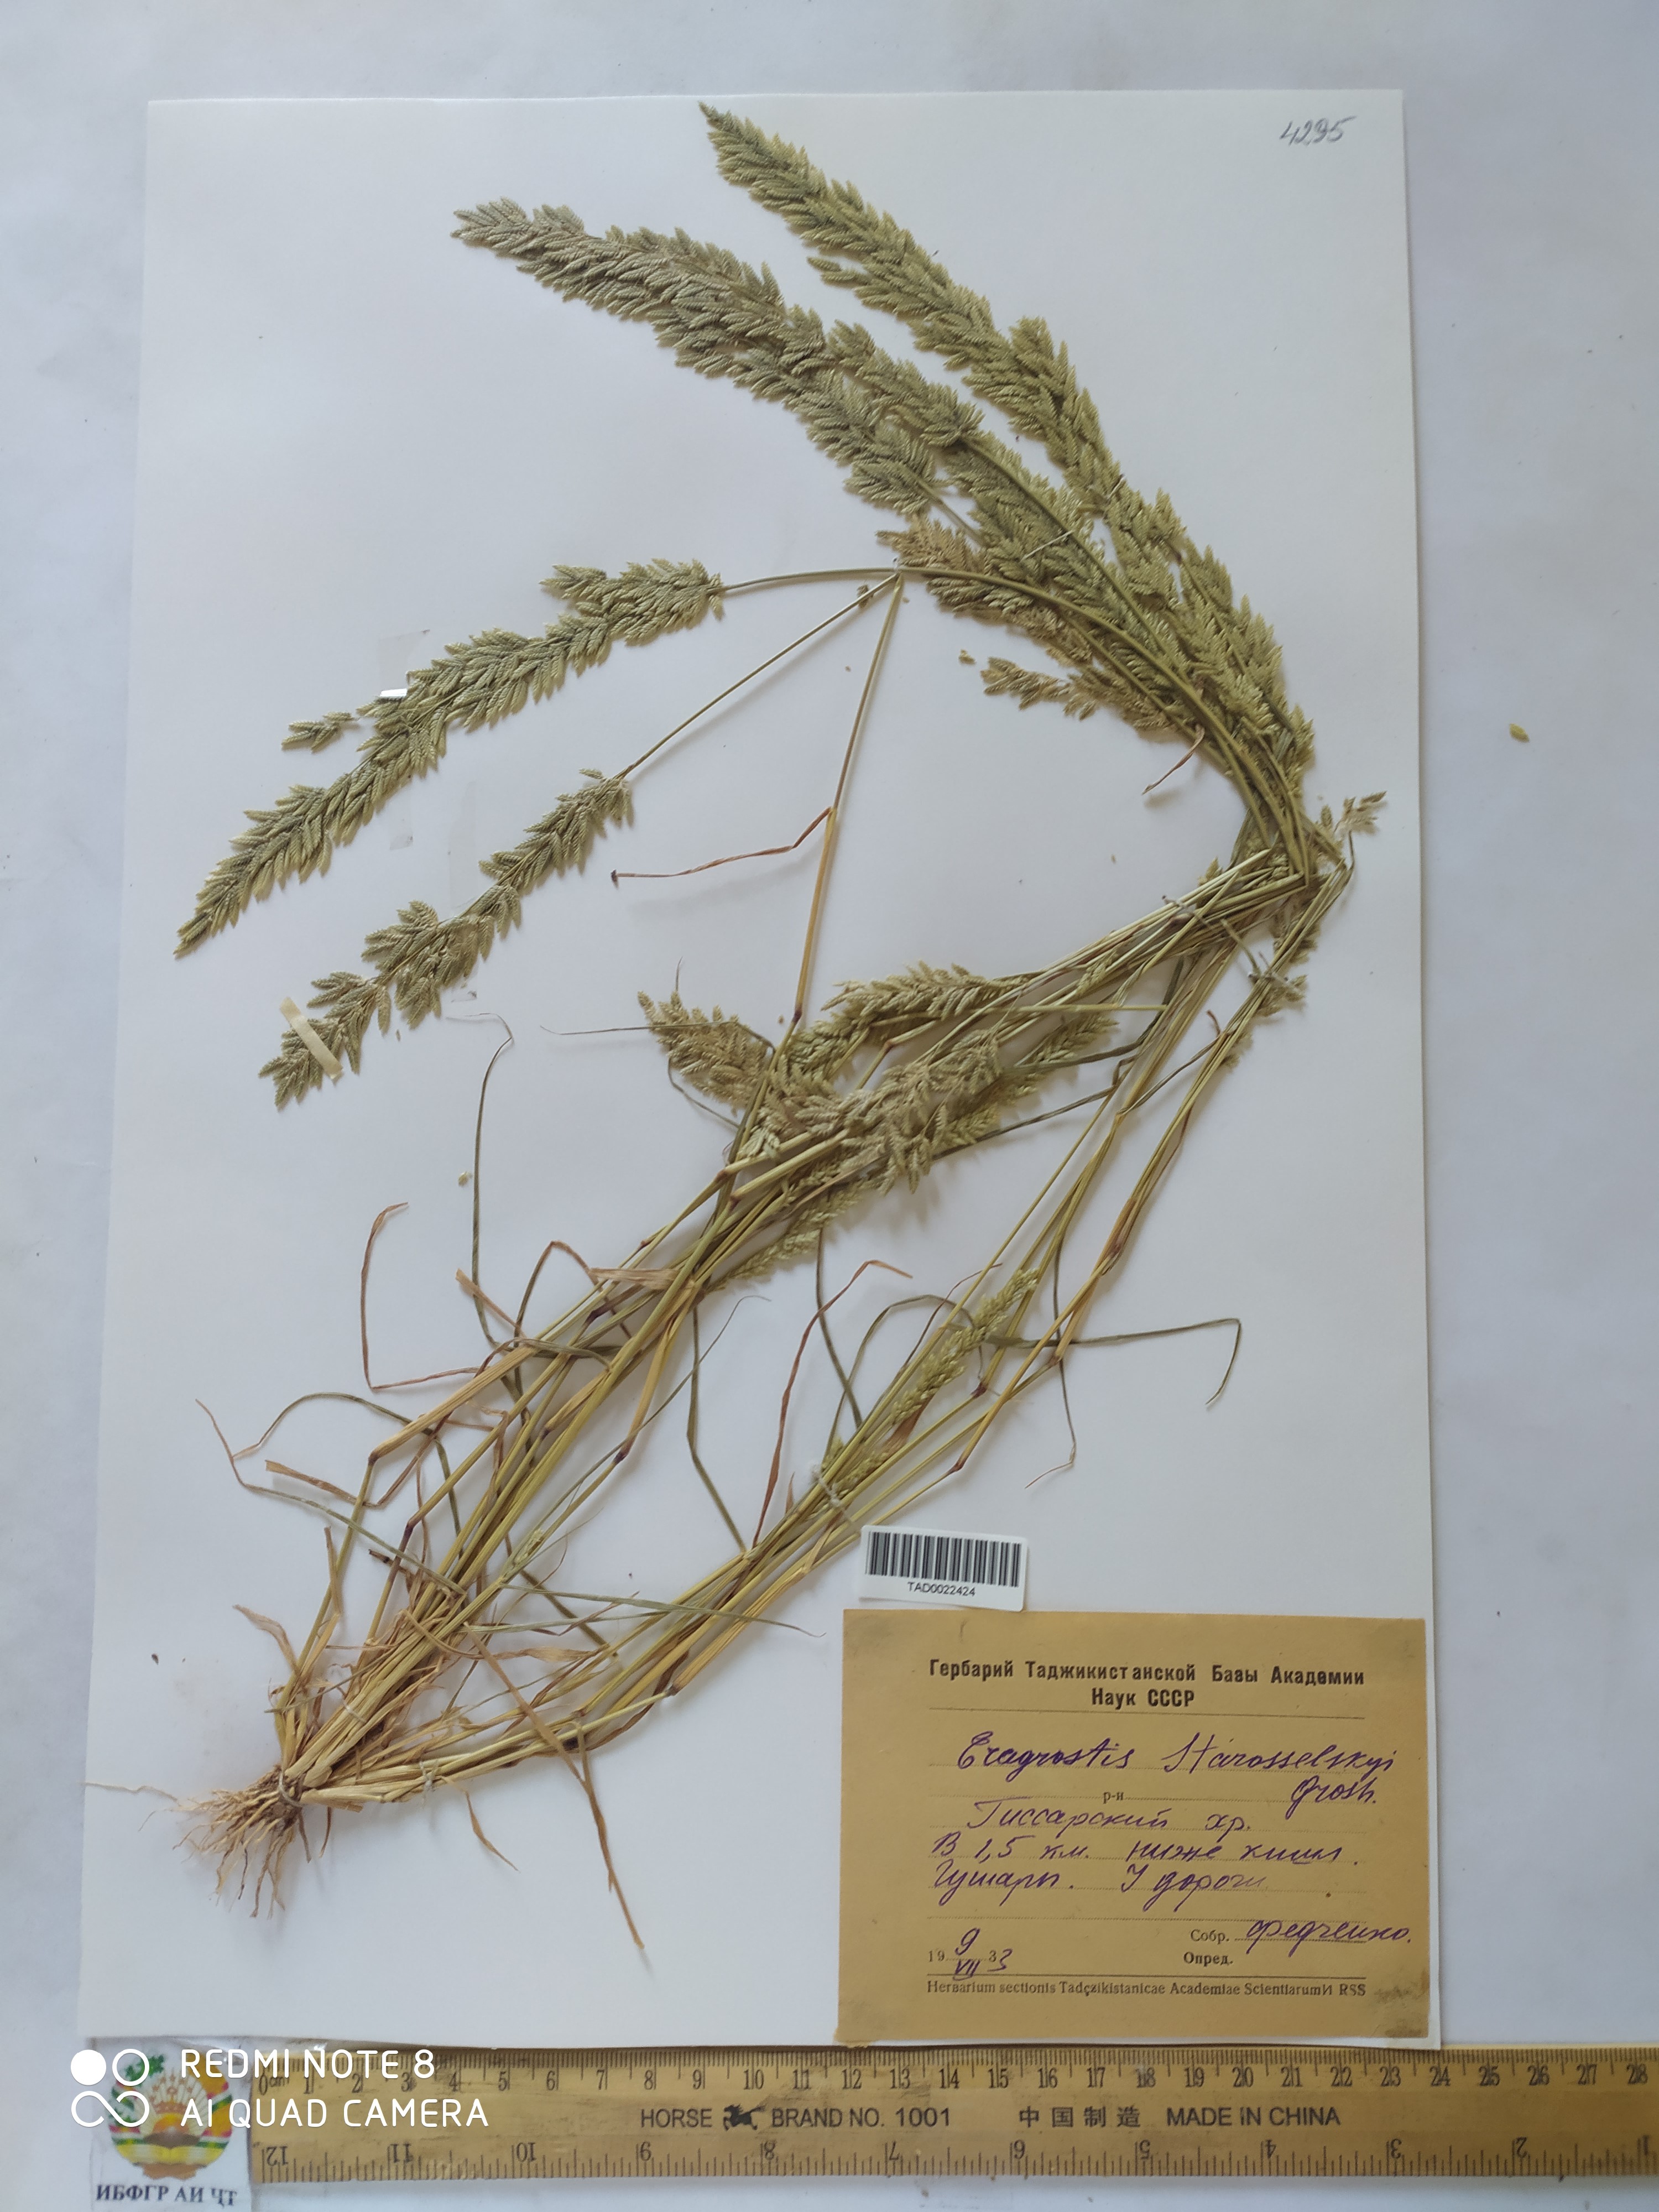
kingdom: Plantae
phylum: Tracheophyta
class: Liliopsida
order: Poales
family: Poaceae
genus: Eragrostis
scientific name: Eragrostis cilianensis
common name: Stinkgrass
